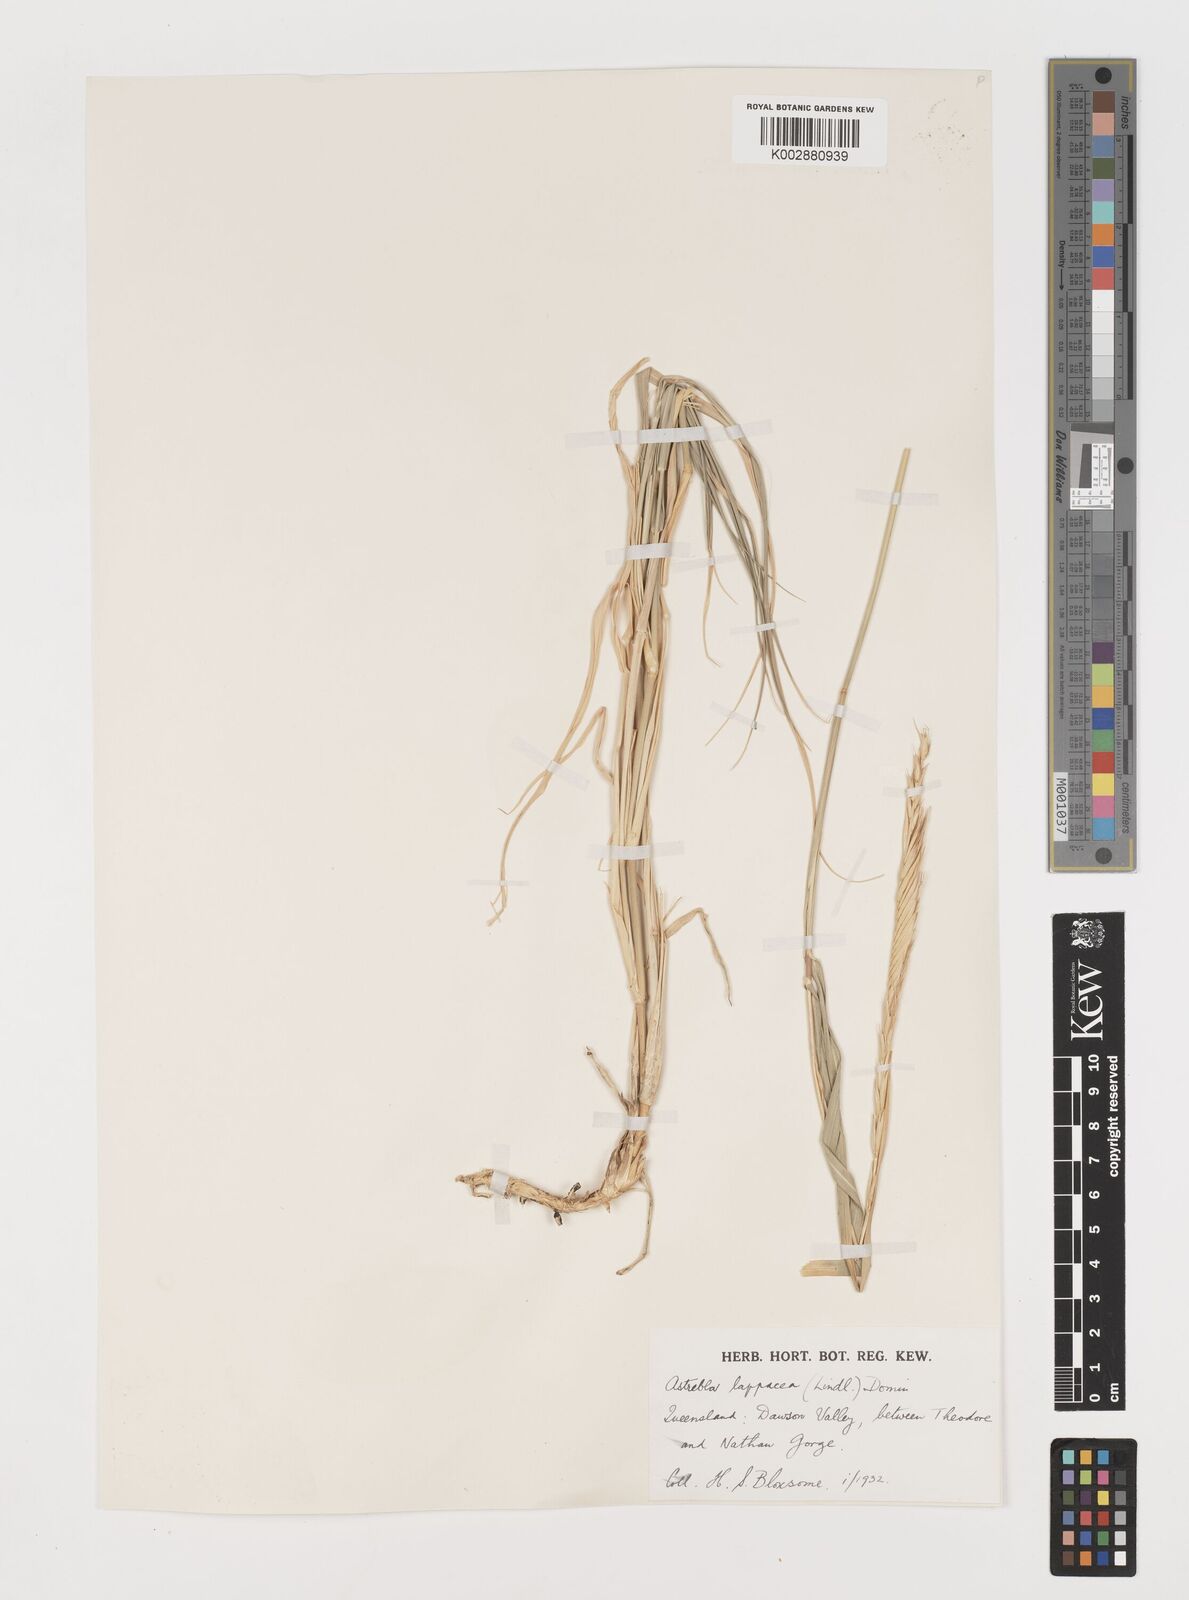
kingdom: Plantae
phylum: Tracheophyta
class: Liliopsida
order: Poales
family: Poaceae
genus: Astrebla
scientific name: Astrebla lappacea
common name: Curly mitchell grass
